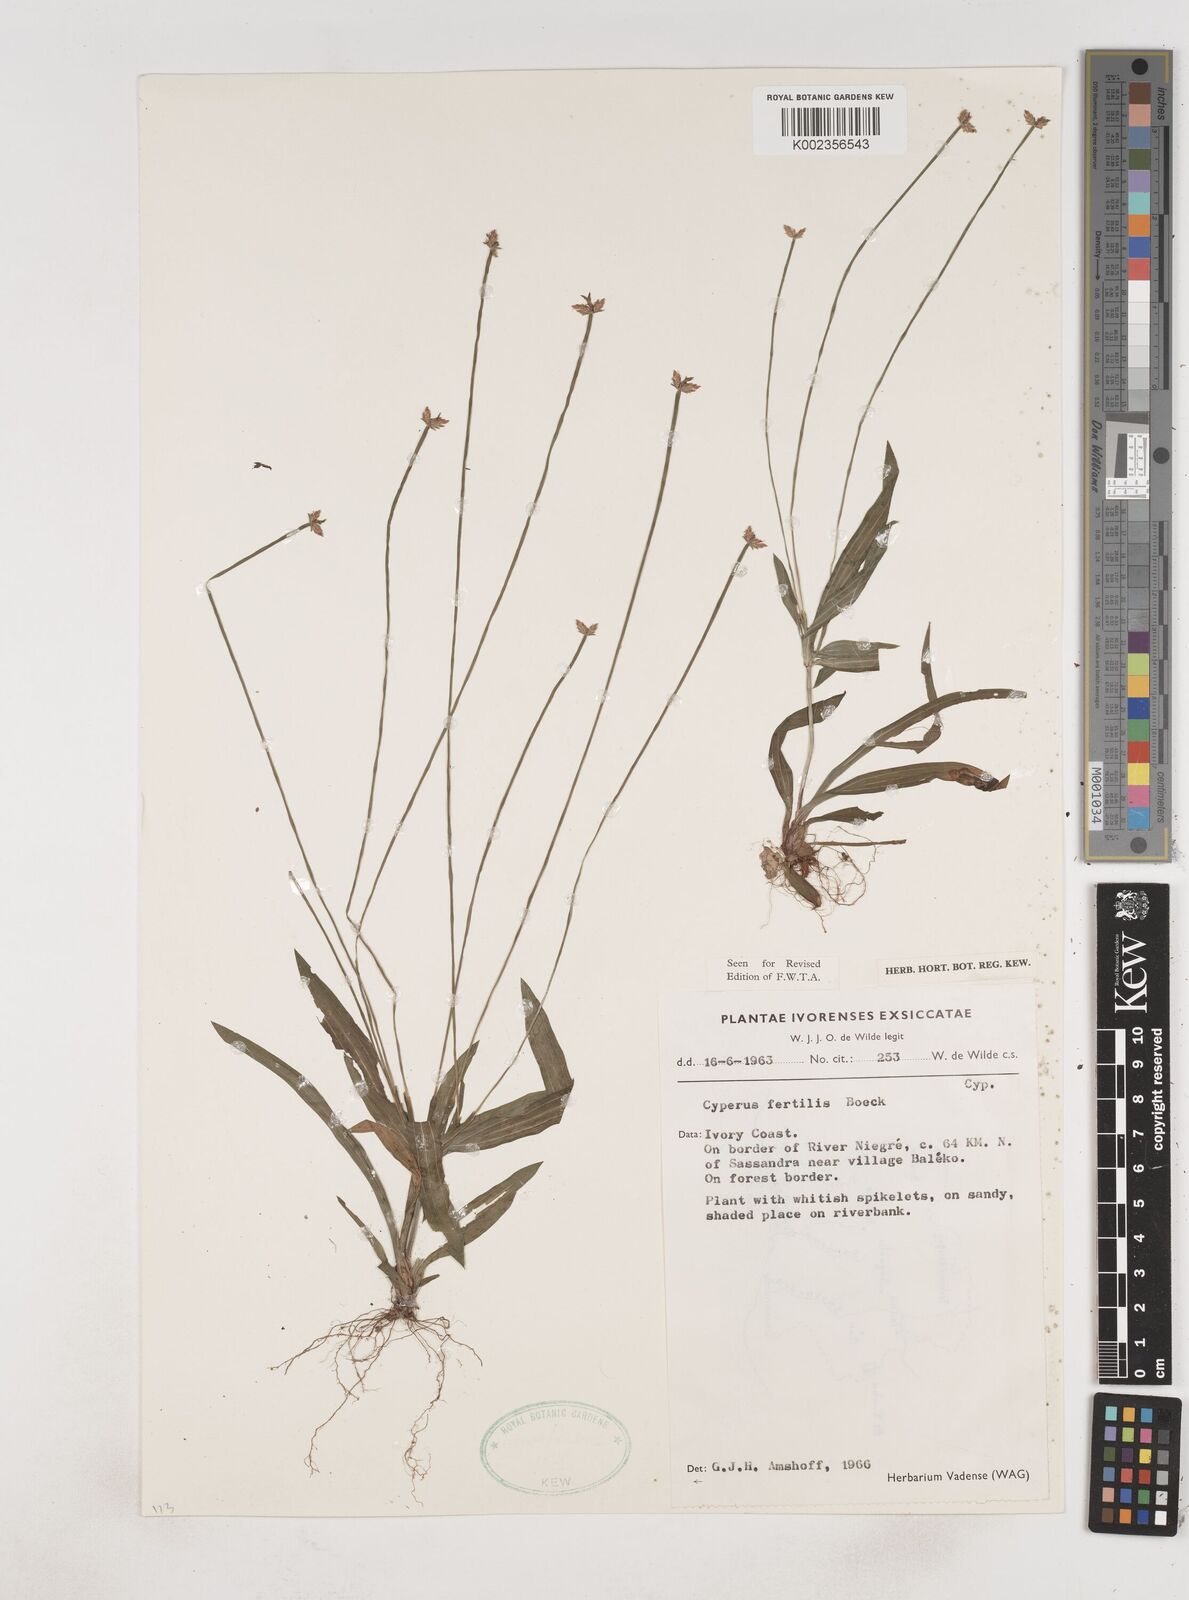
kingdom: Plantae
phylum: Tracheophyta
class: Liliopsida
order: Poales
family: Cyperaceae
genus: Cyperus
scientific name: Cyperus fertilis
